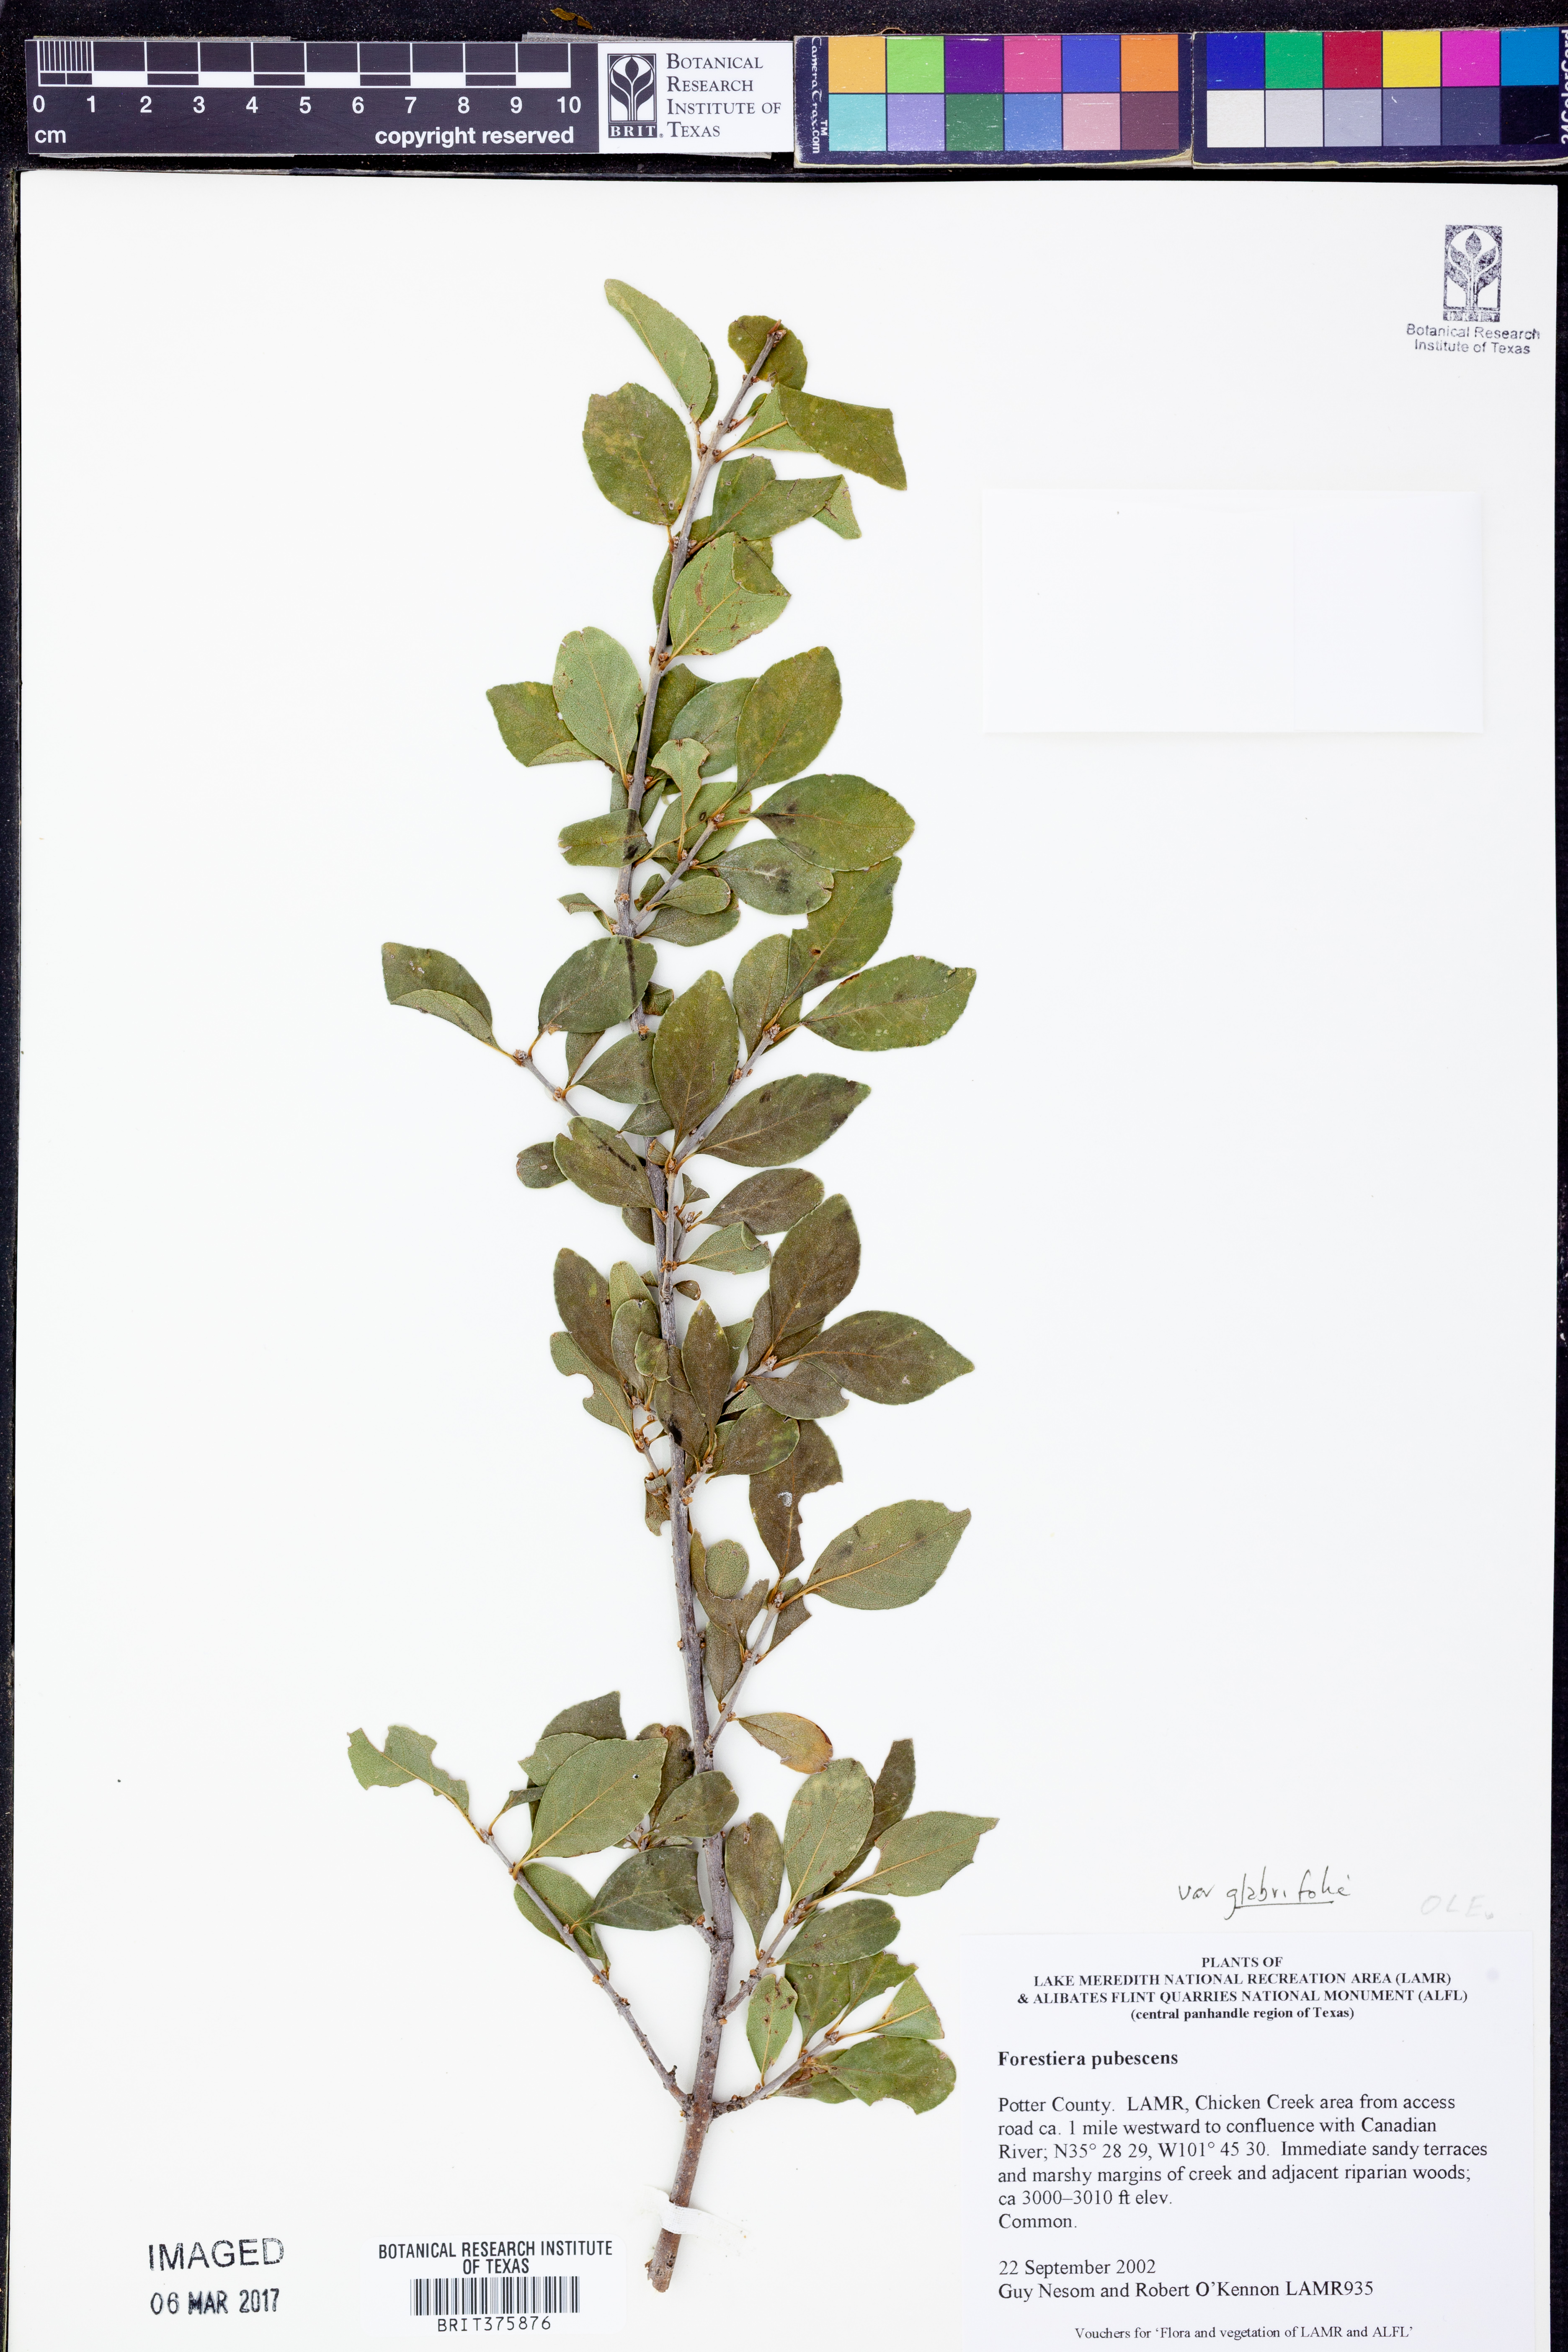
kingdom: Plantae
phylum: Tracheophyta
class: Magnoliopsida
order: Lamiales
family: Oleaceae
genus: Forestiera
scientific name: Forestiera pubescens
